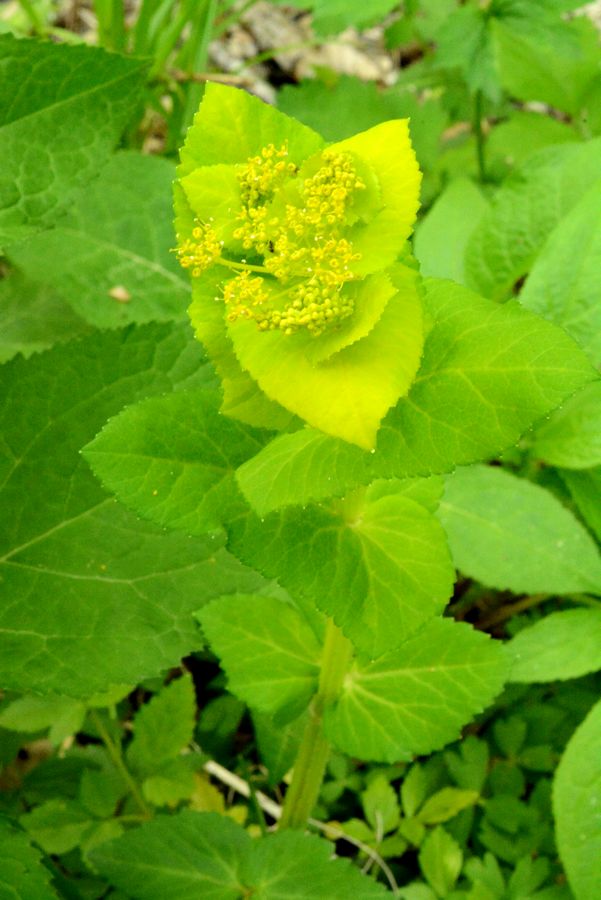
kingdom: Plantae
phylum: Tracheophyta
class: Magnoliopsida
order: Apiales
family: Apiaceae
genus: Smyrnium
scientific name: Smyrnium perfoliatum
